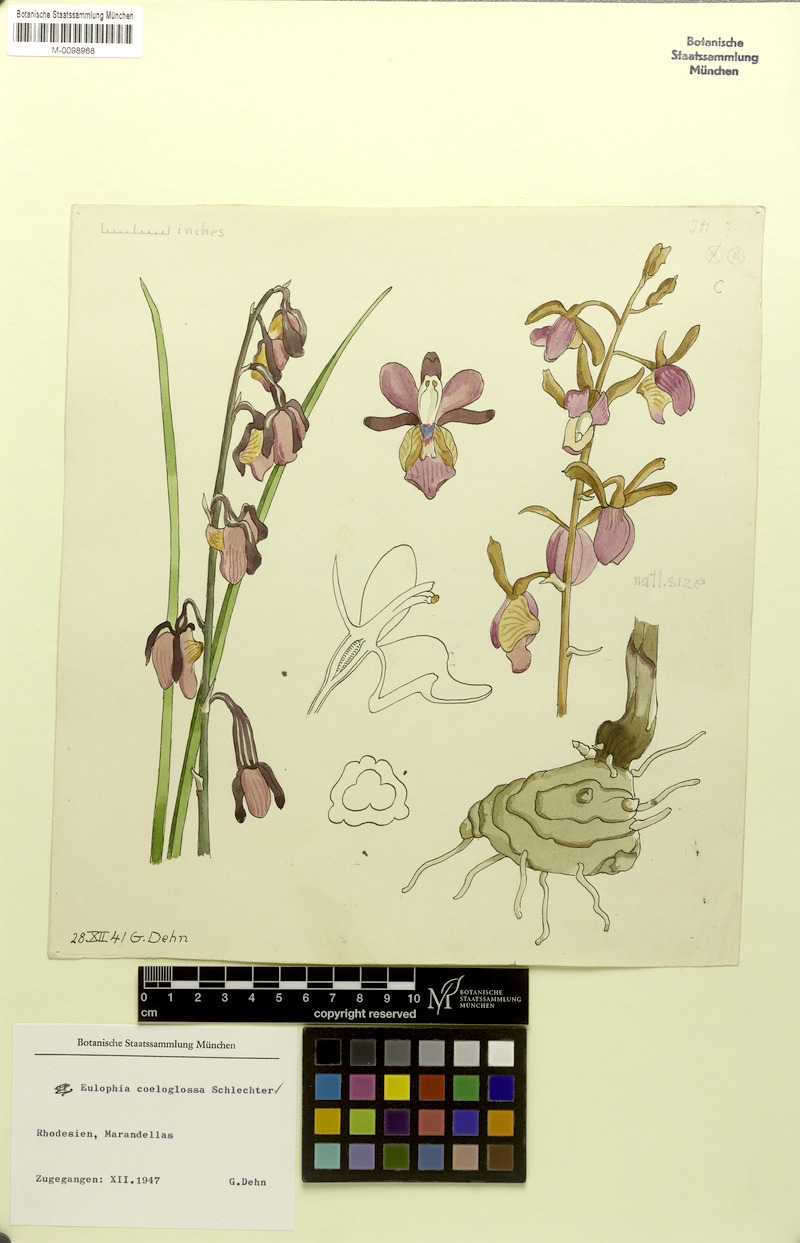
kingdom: Plantae
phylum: Tracheophyta
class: Liliopsida
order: Asparagales
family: Orchidaceae
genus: Eulophia
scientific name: Eulophia coeloglossa
